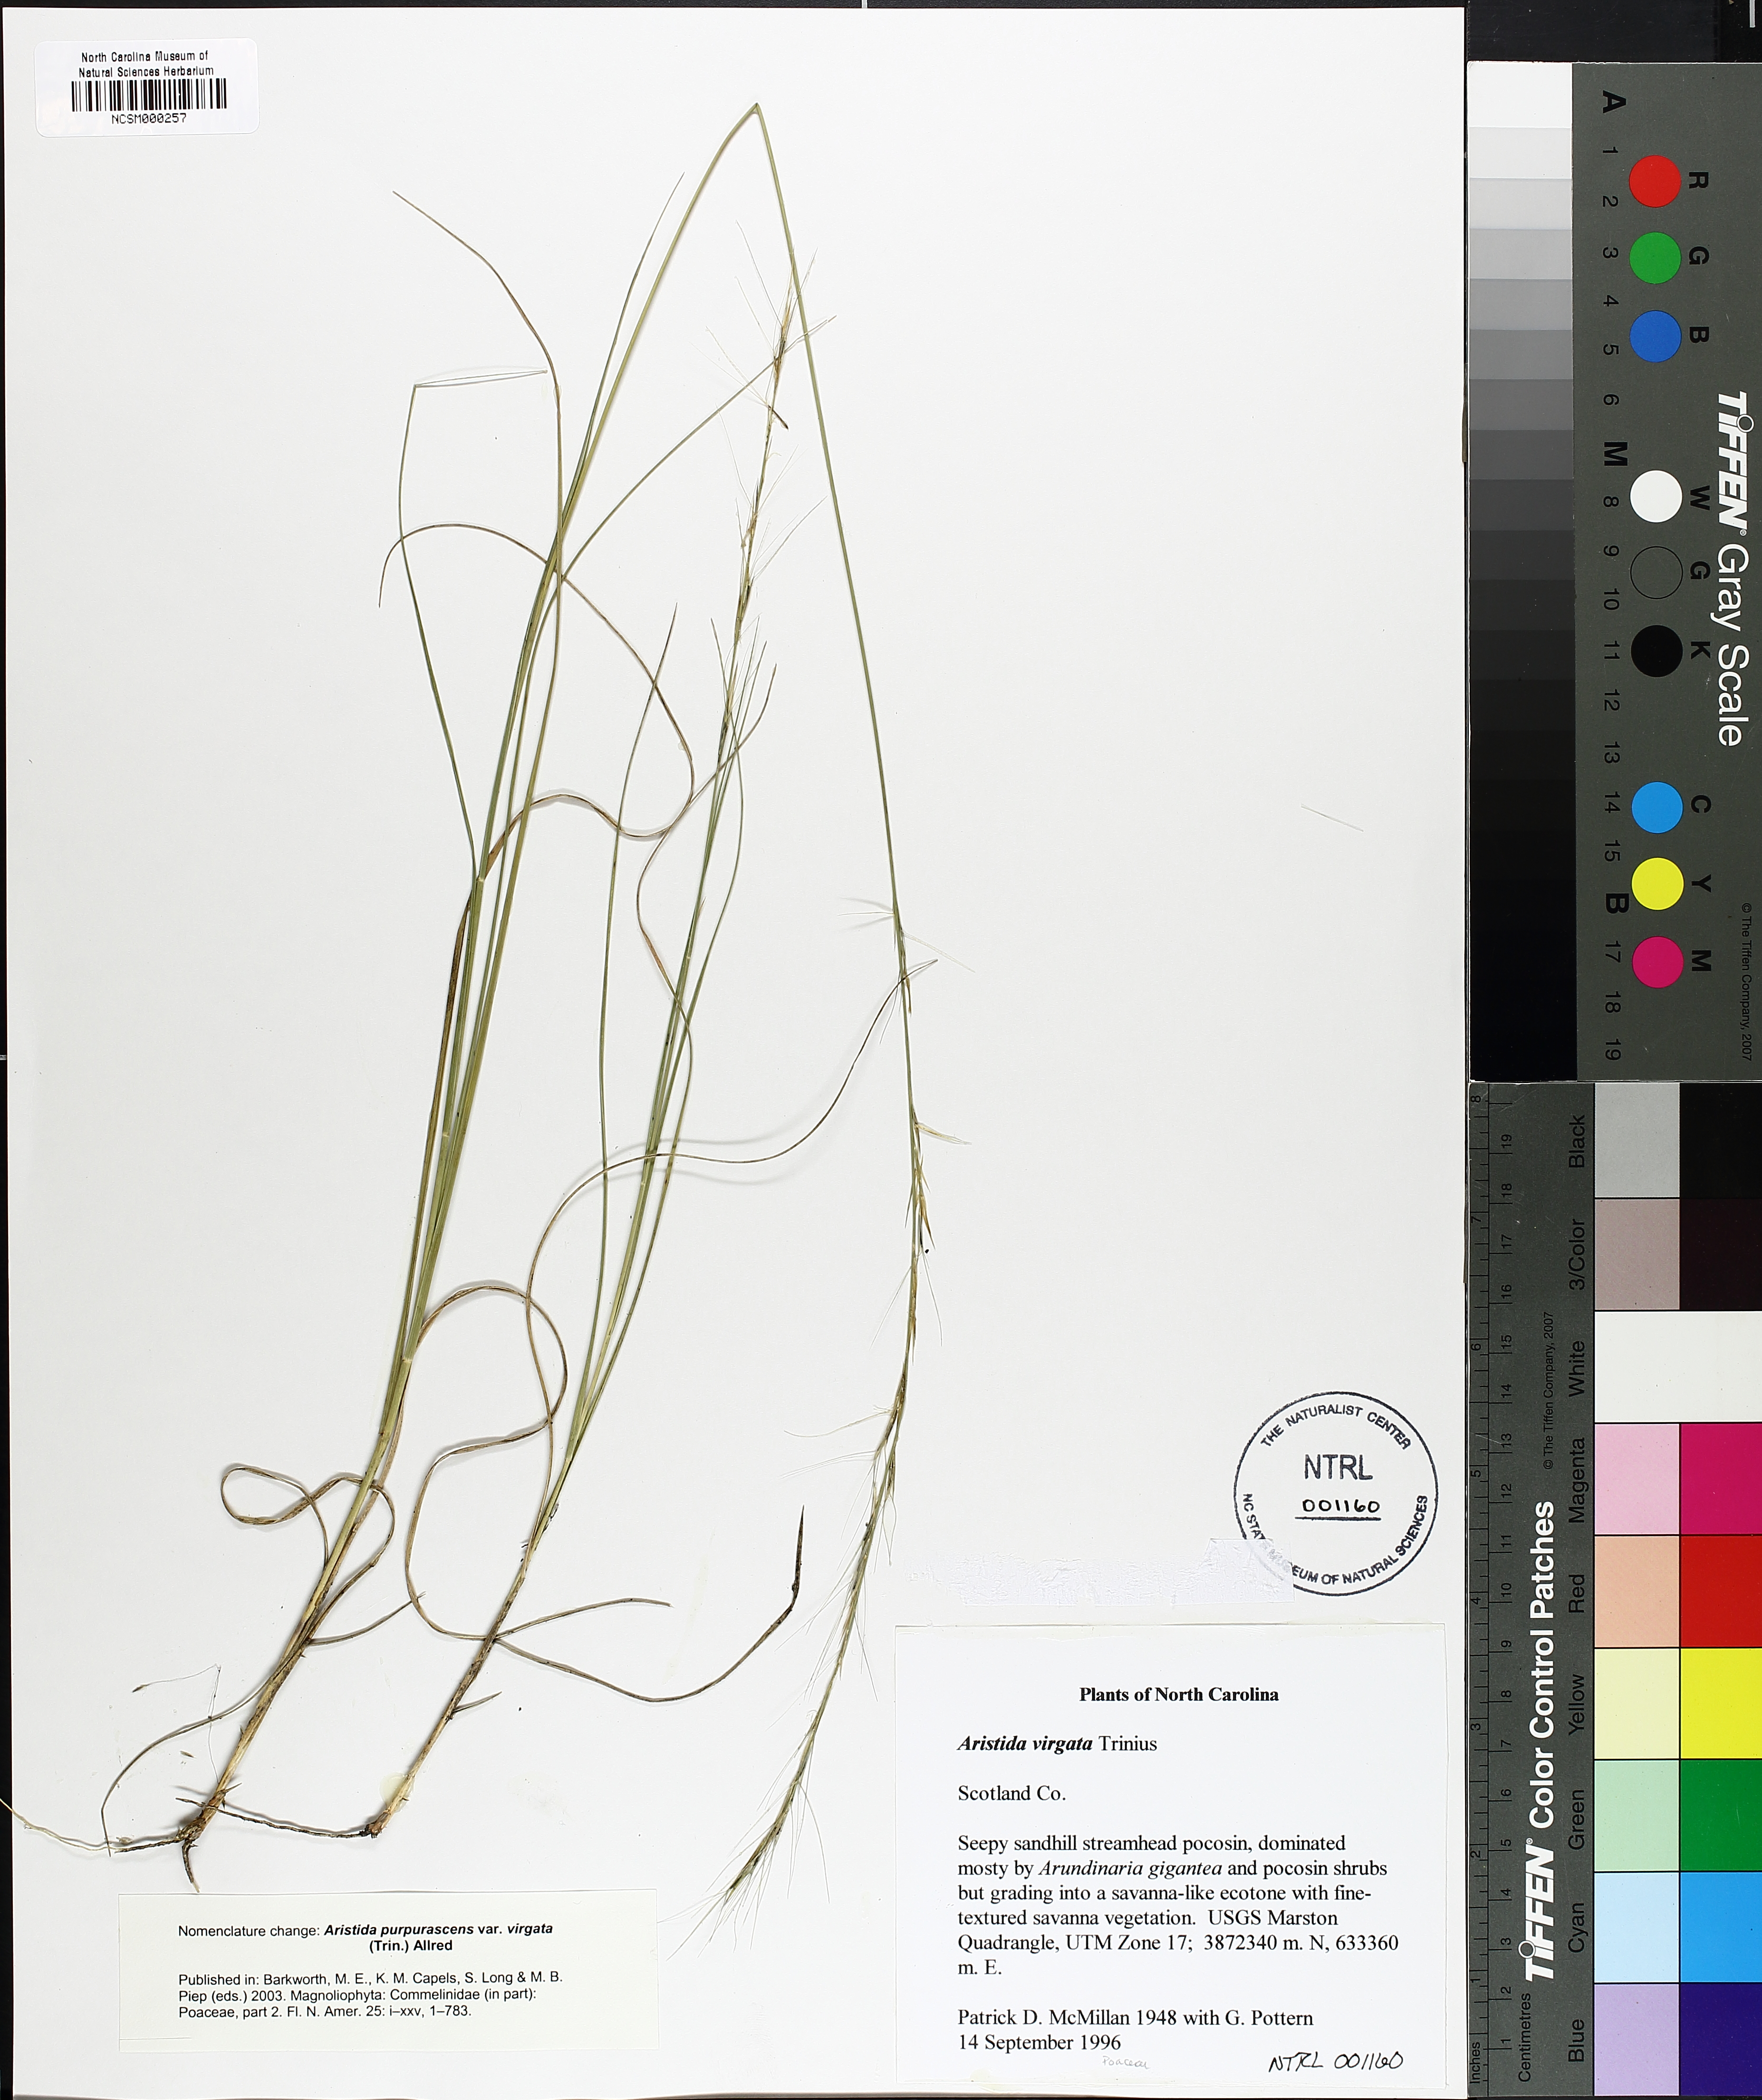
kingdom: Plantae
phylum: Tracheophyta
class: Liliopsida
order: Poales
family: Poaceae
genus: Aristida
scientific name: Aristida virgata
